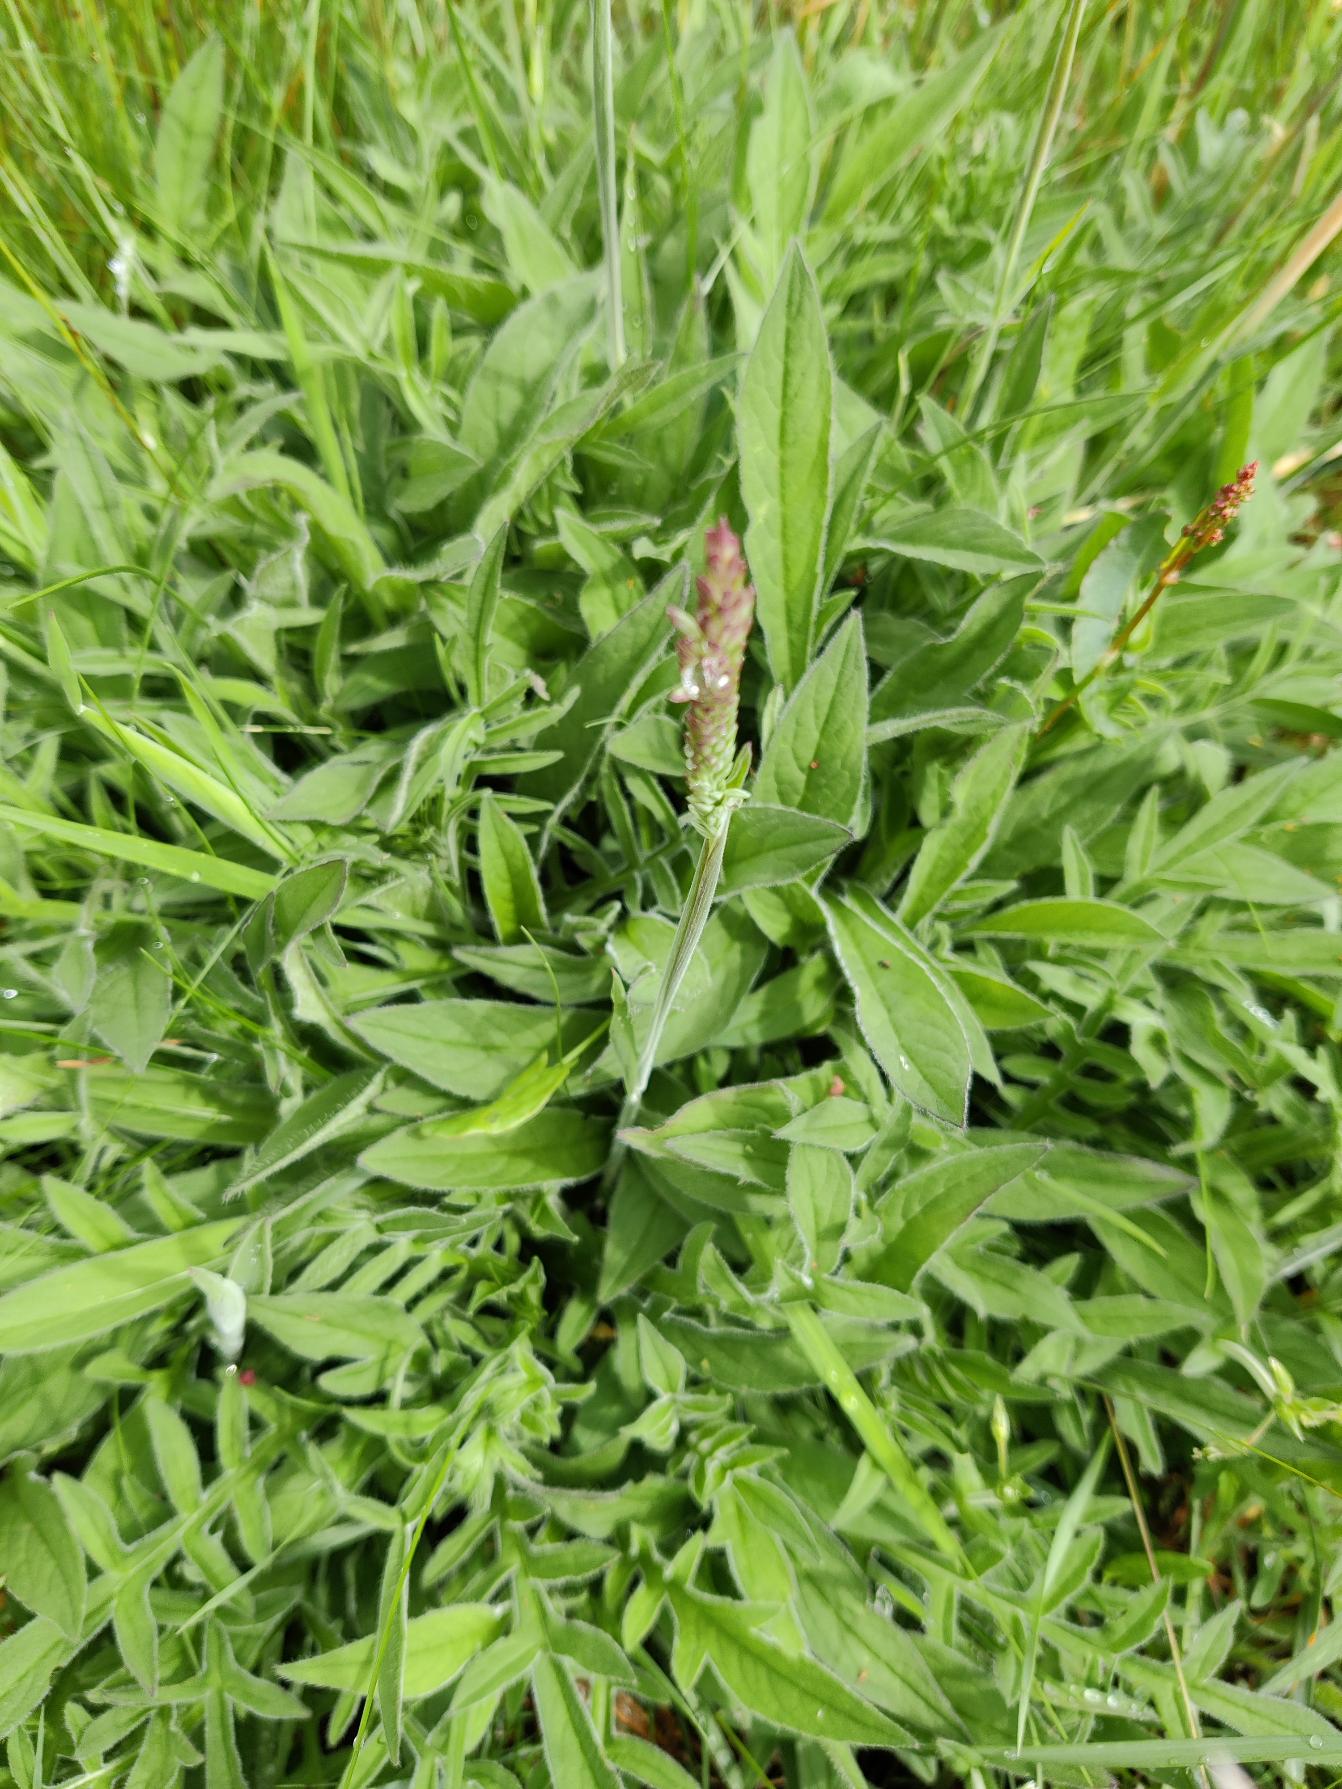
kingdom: Plantae
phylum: Tracheophyta
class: Magnoliopsida
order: Dipsacales
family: Caprifoliaceae
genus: Knautia
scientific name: Knautia arvensis
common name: Blåhat
